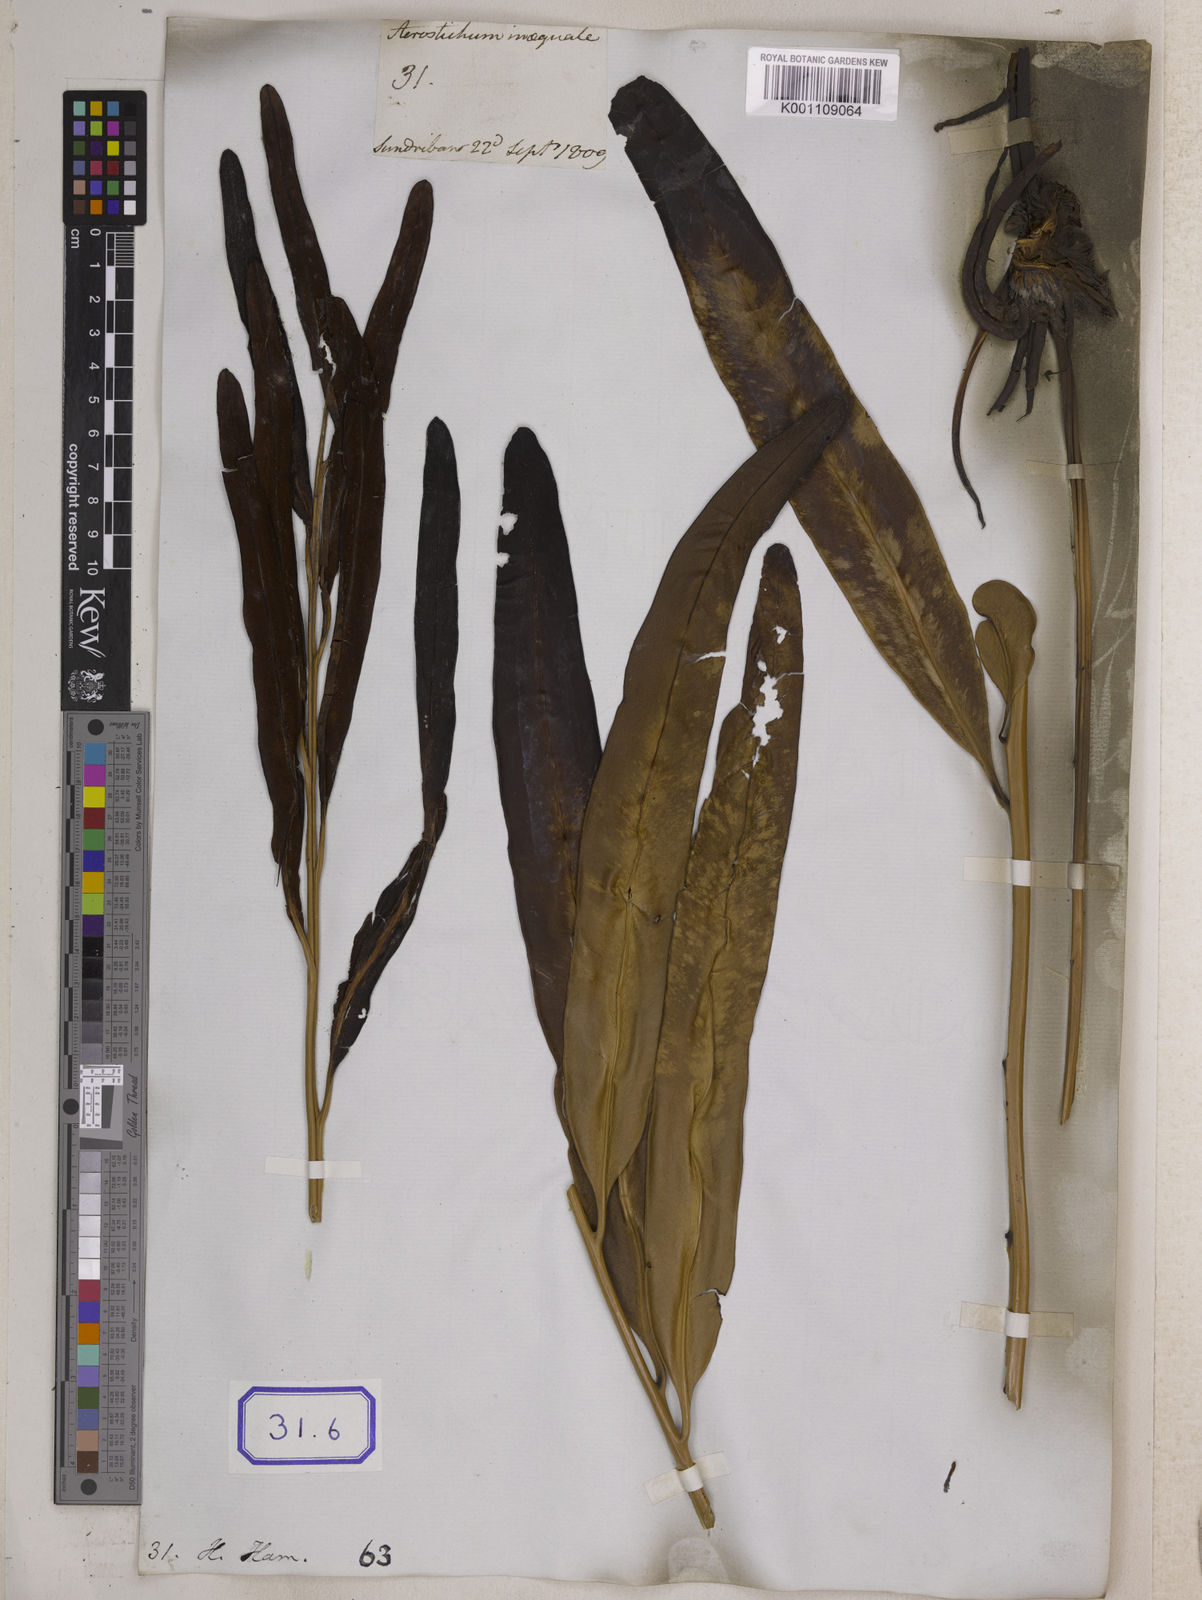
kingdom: Plantae
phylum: Tracheophyta
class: Polypodiopsida
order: Polypodiales
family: Pteridaceae
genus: Acrostichum
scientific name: Acrostichum aureum
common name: Leather fern
